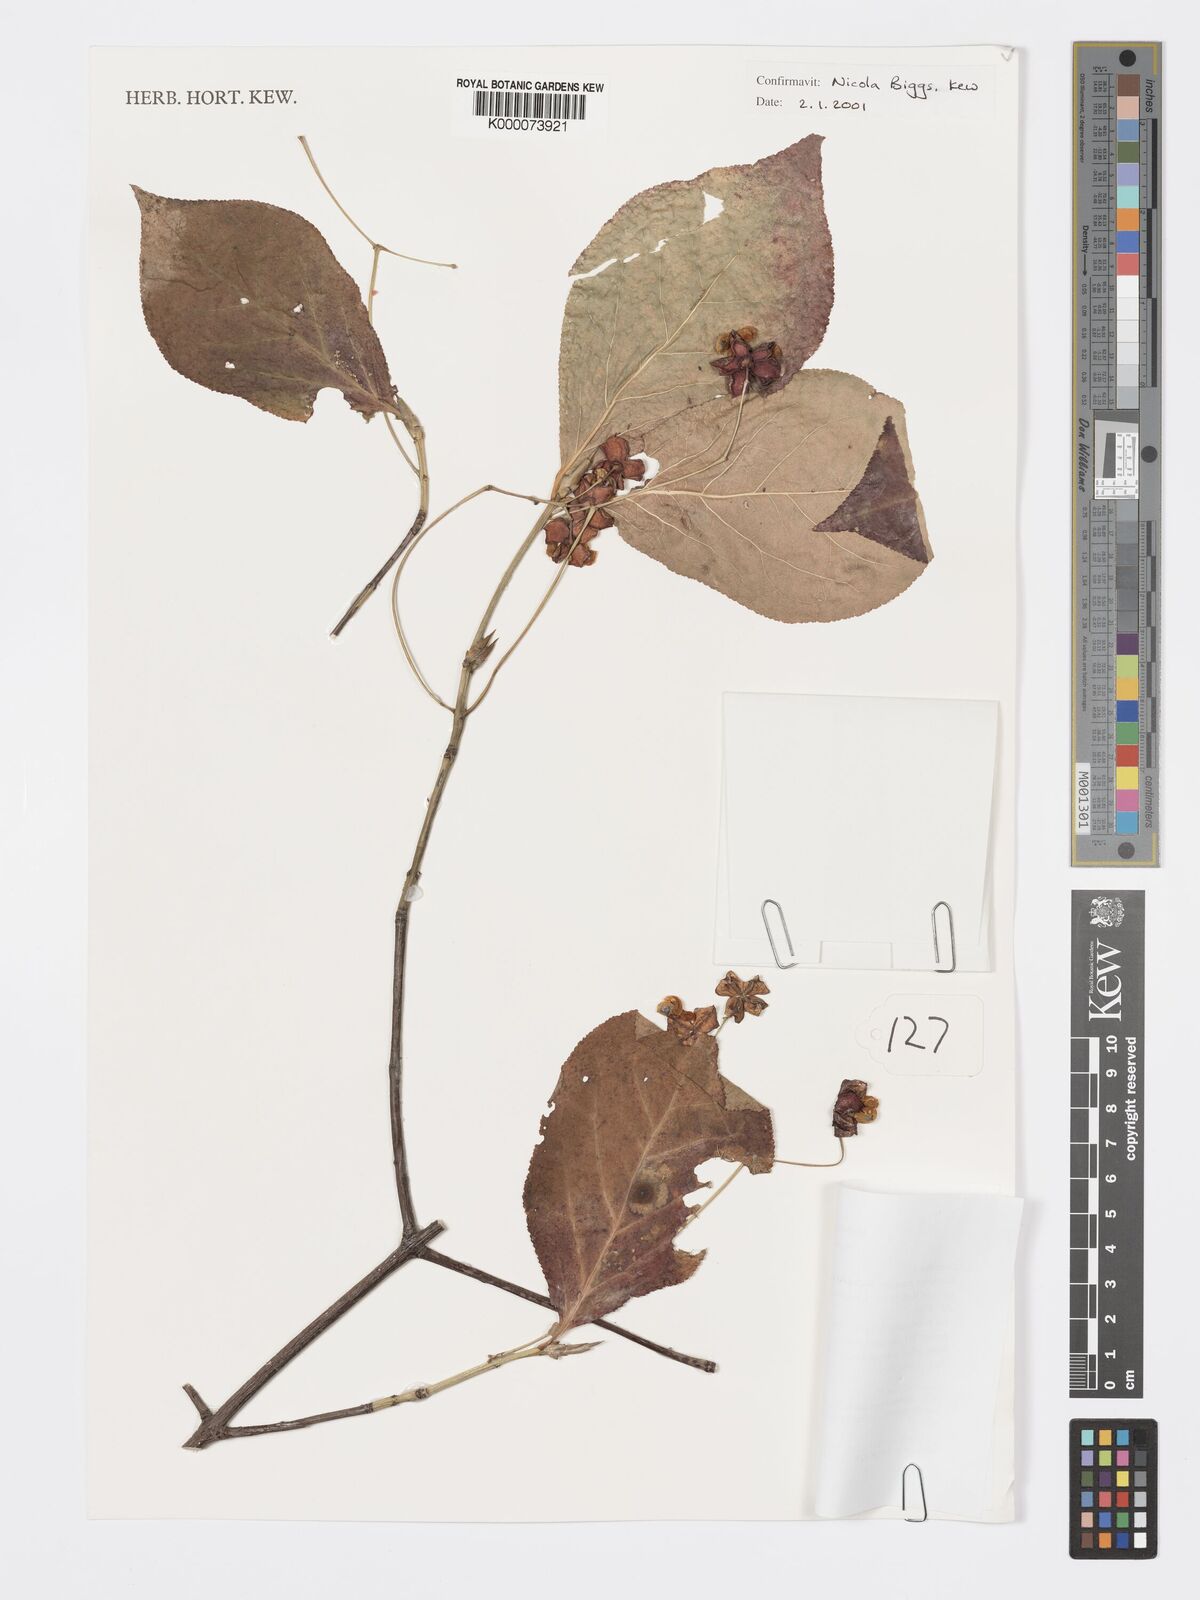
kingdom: Plantae
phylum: Tracheophyta
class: Magnoliopsida
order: Celastrales
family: Celastraceae
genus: Euonymus
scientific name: Euonymus sachalinensis
